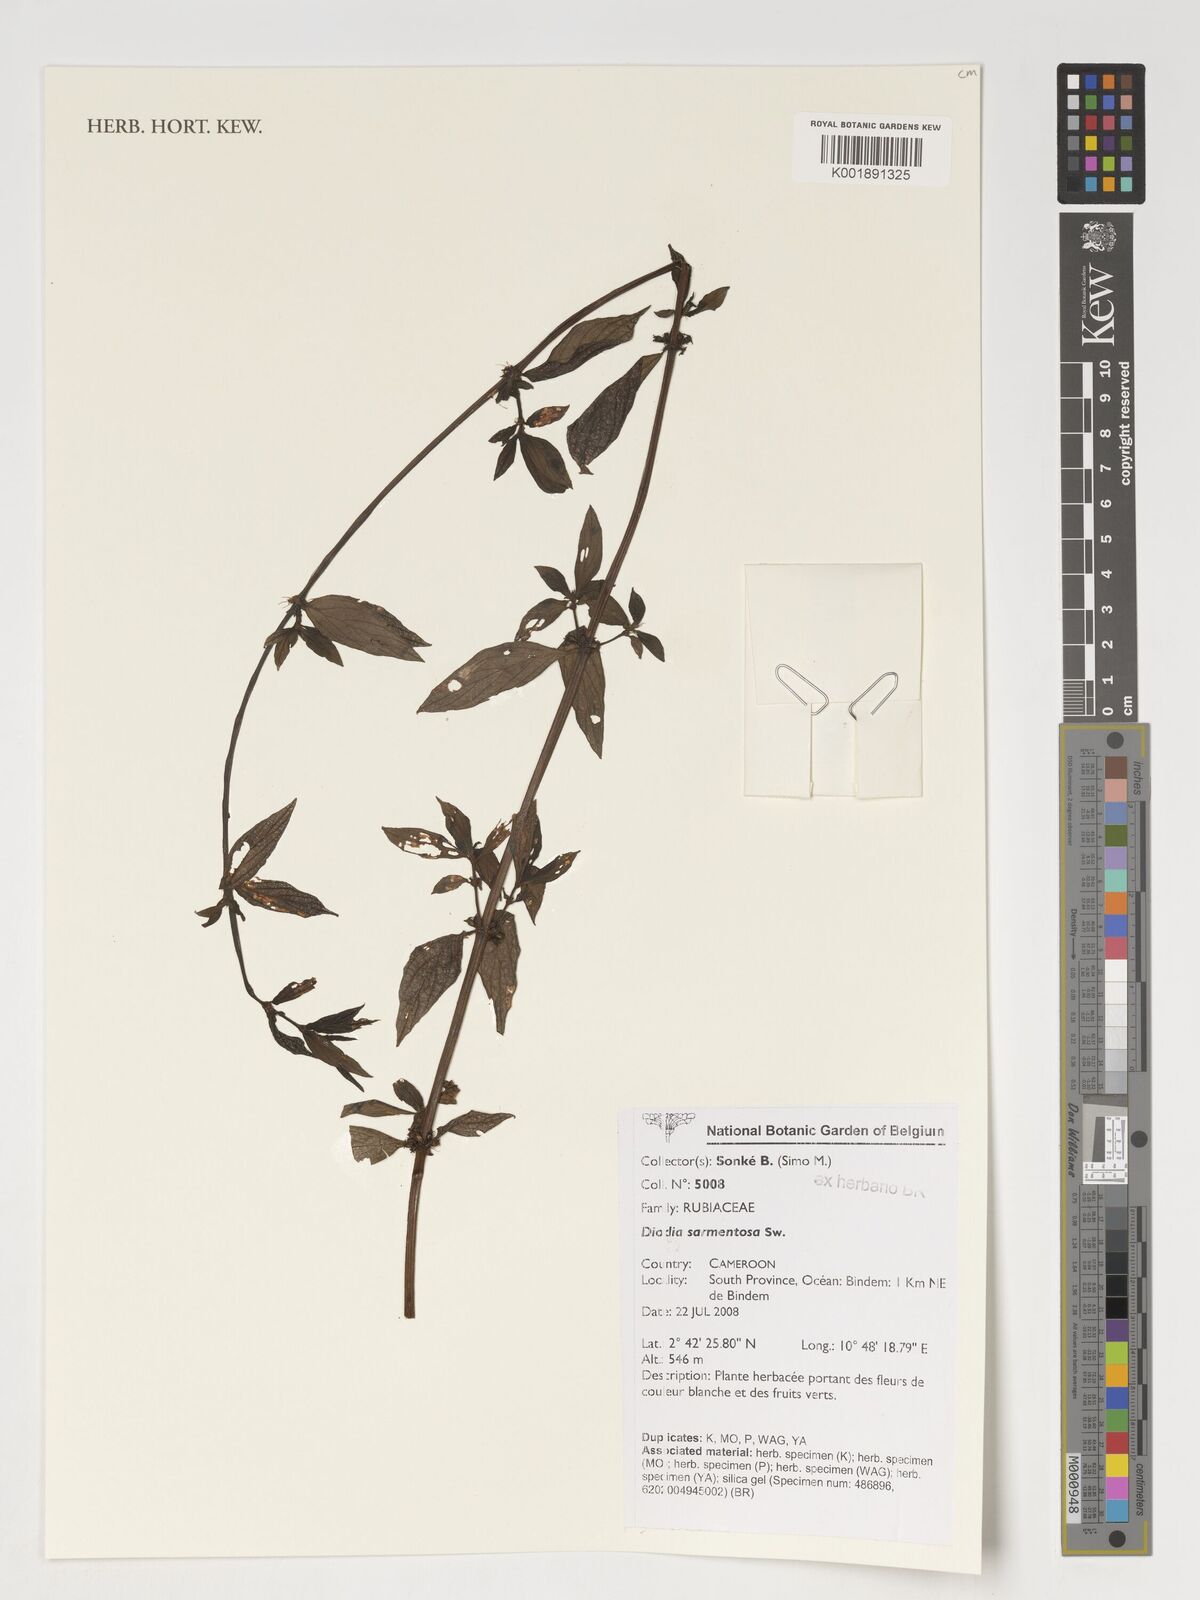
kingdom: Plantae
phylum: Tracheophyta
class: Magnoliopsida
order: Gentianales
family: Rubiaceae
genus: Hexasepalum
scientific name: Hexasepalum sarmentosum
